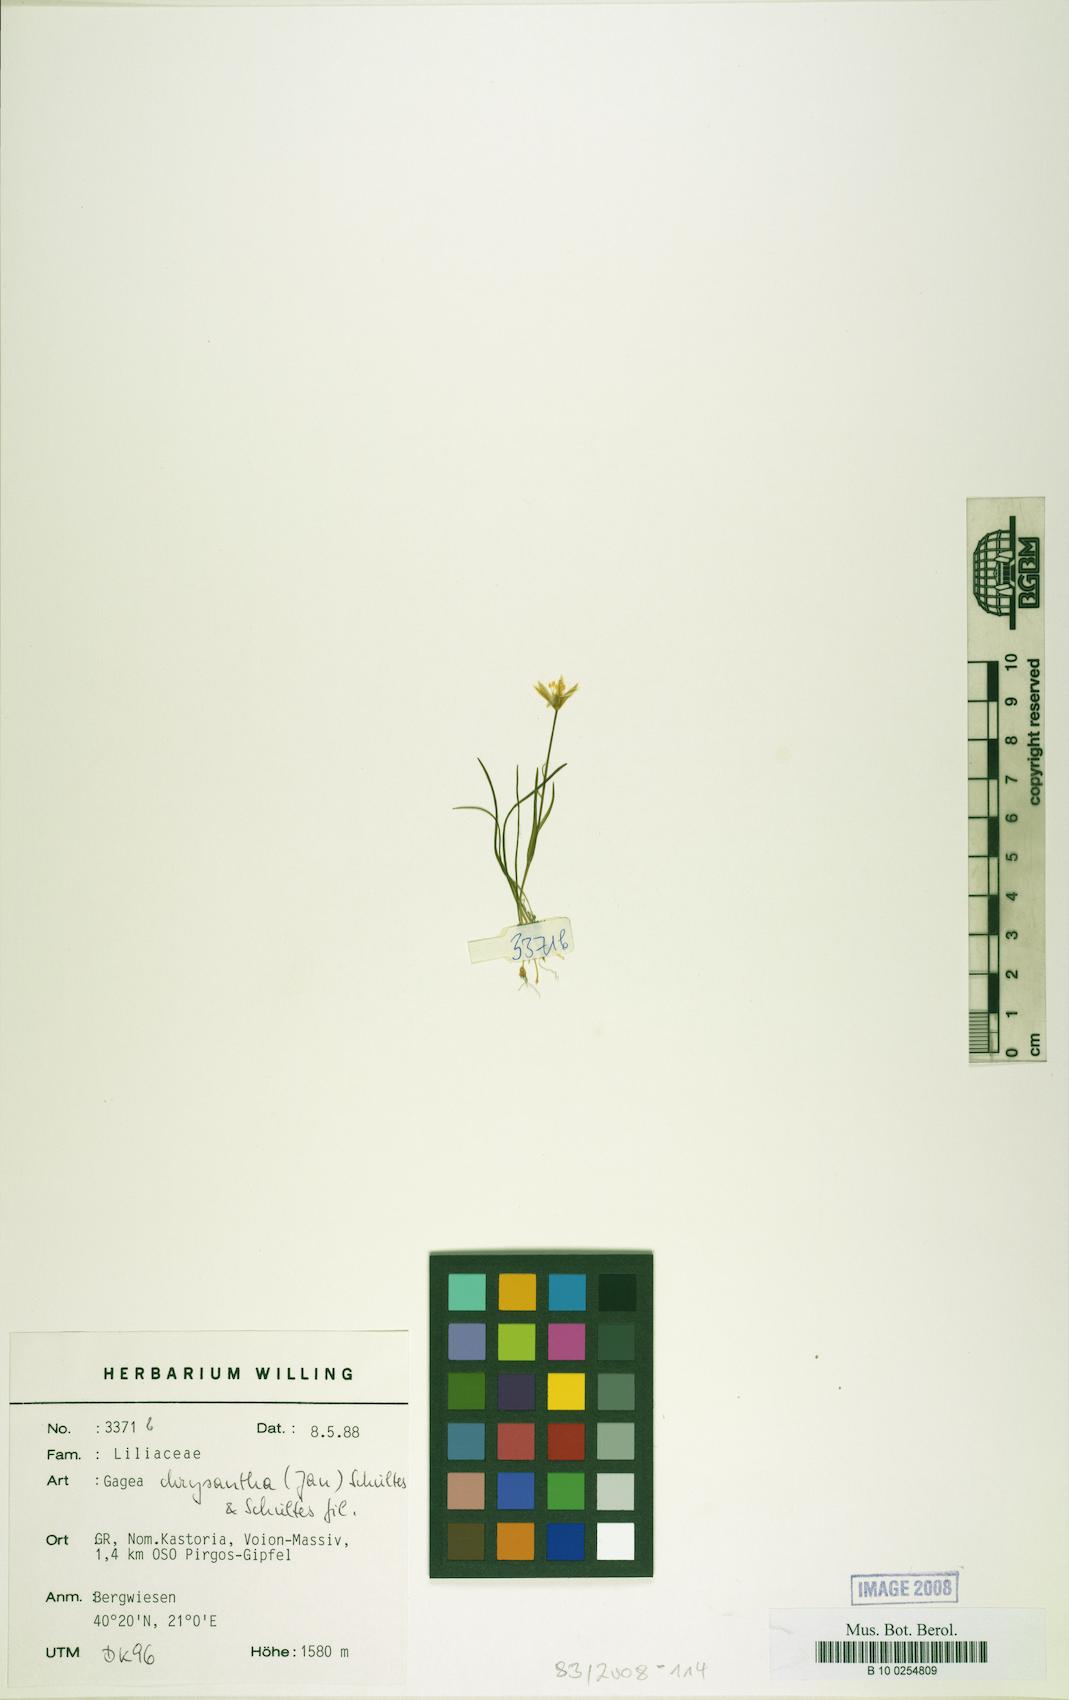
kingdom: Plantae
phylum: Tracheophyta
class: Liliopsida
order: Liliales
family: Liliaceae
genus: Gagea
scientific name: Gagea chrysantha
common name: Golden gagea
